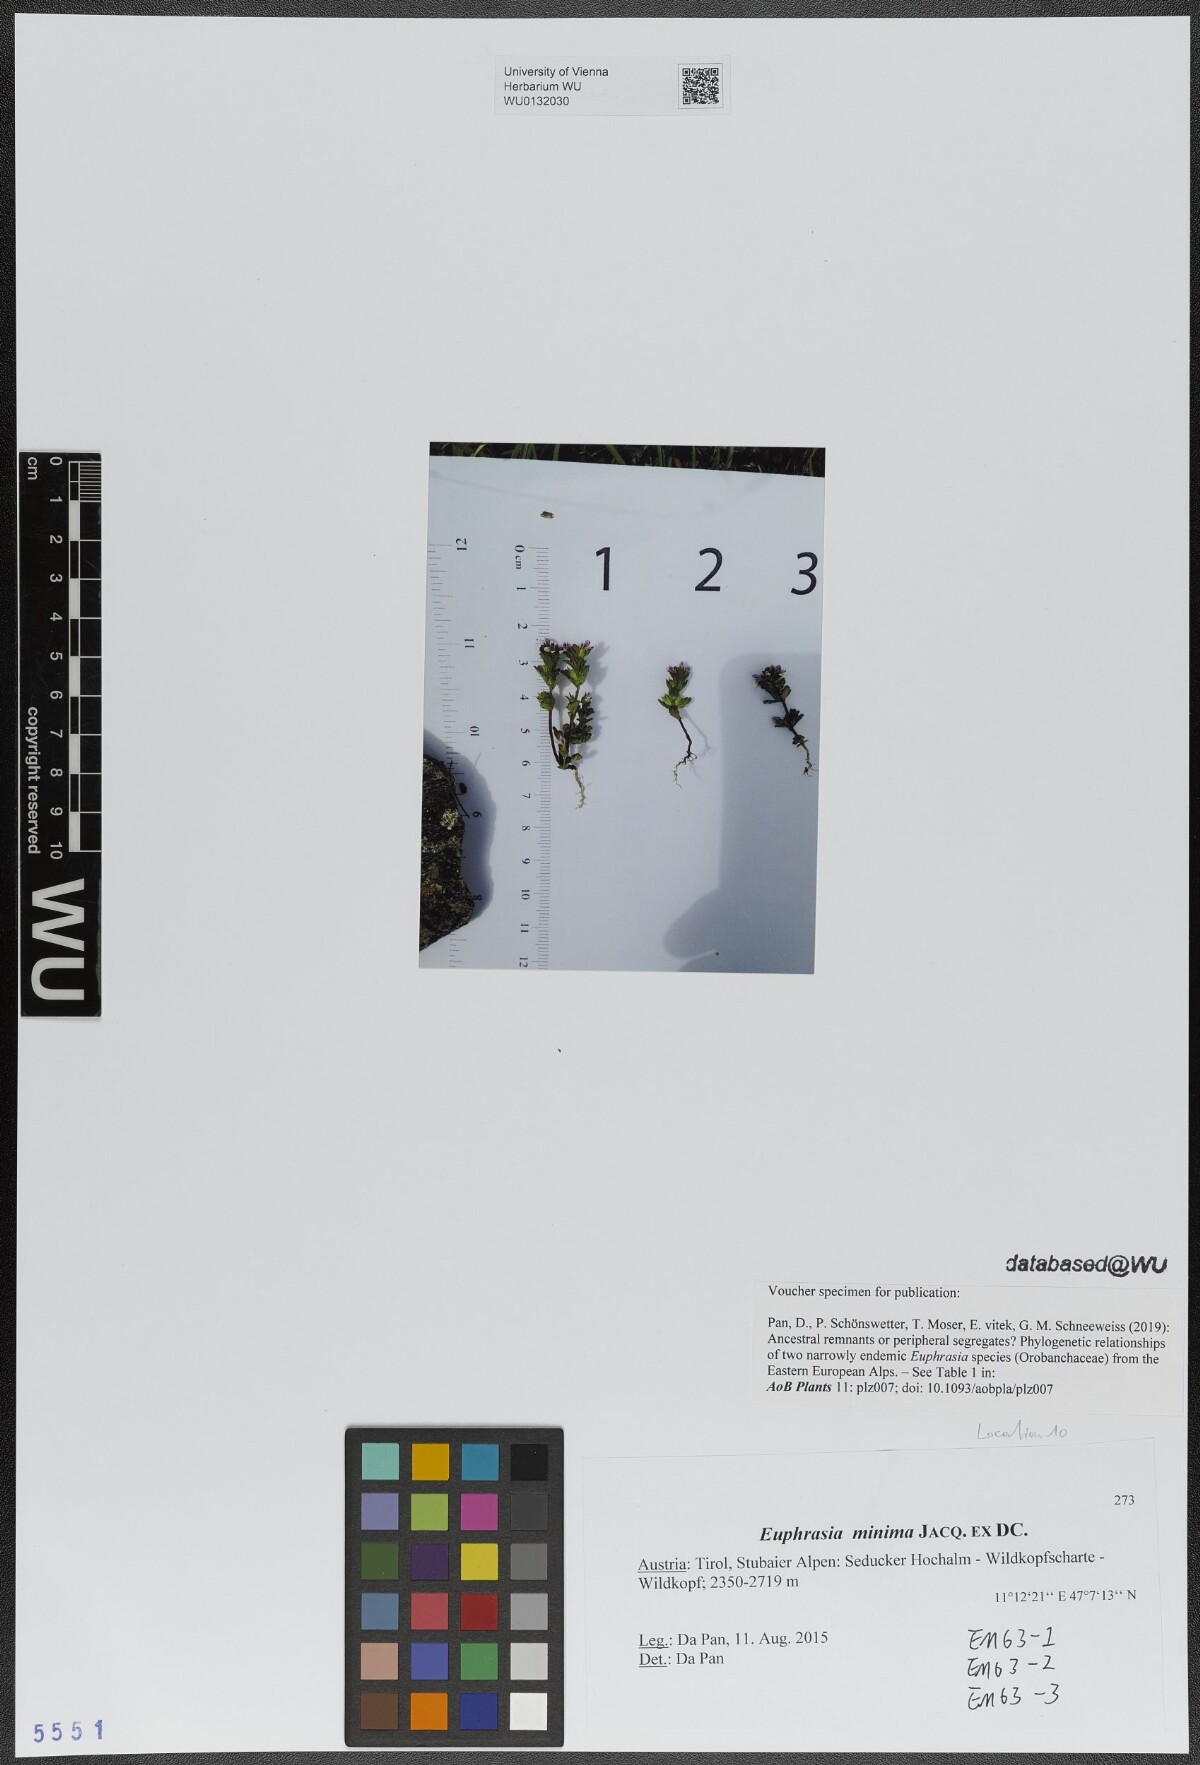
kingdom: Plantae
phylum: Tracheophyta
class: Magnoliopsida
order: Lamiales
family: Orobanchaceae
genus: Euphrasia
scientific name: Euphrasia minima
